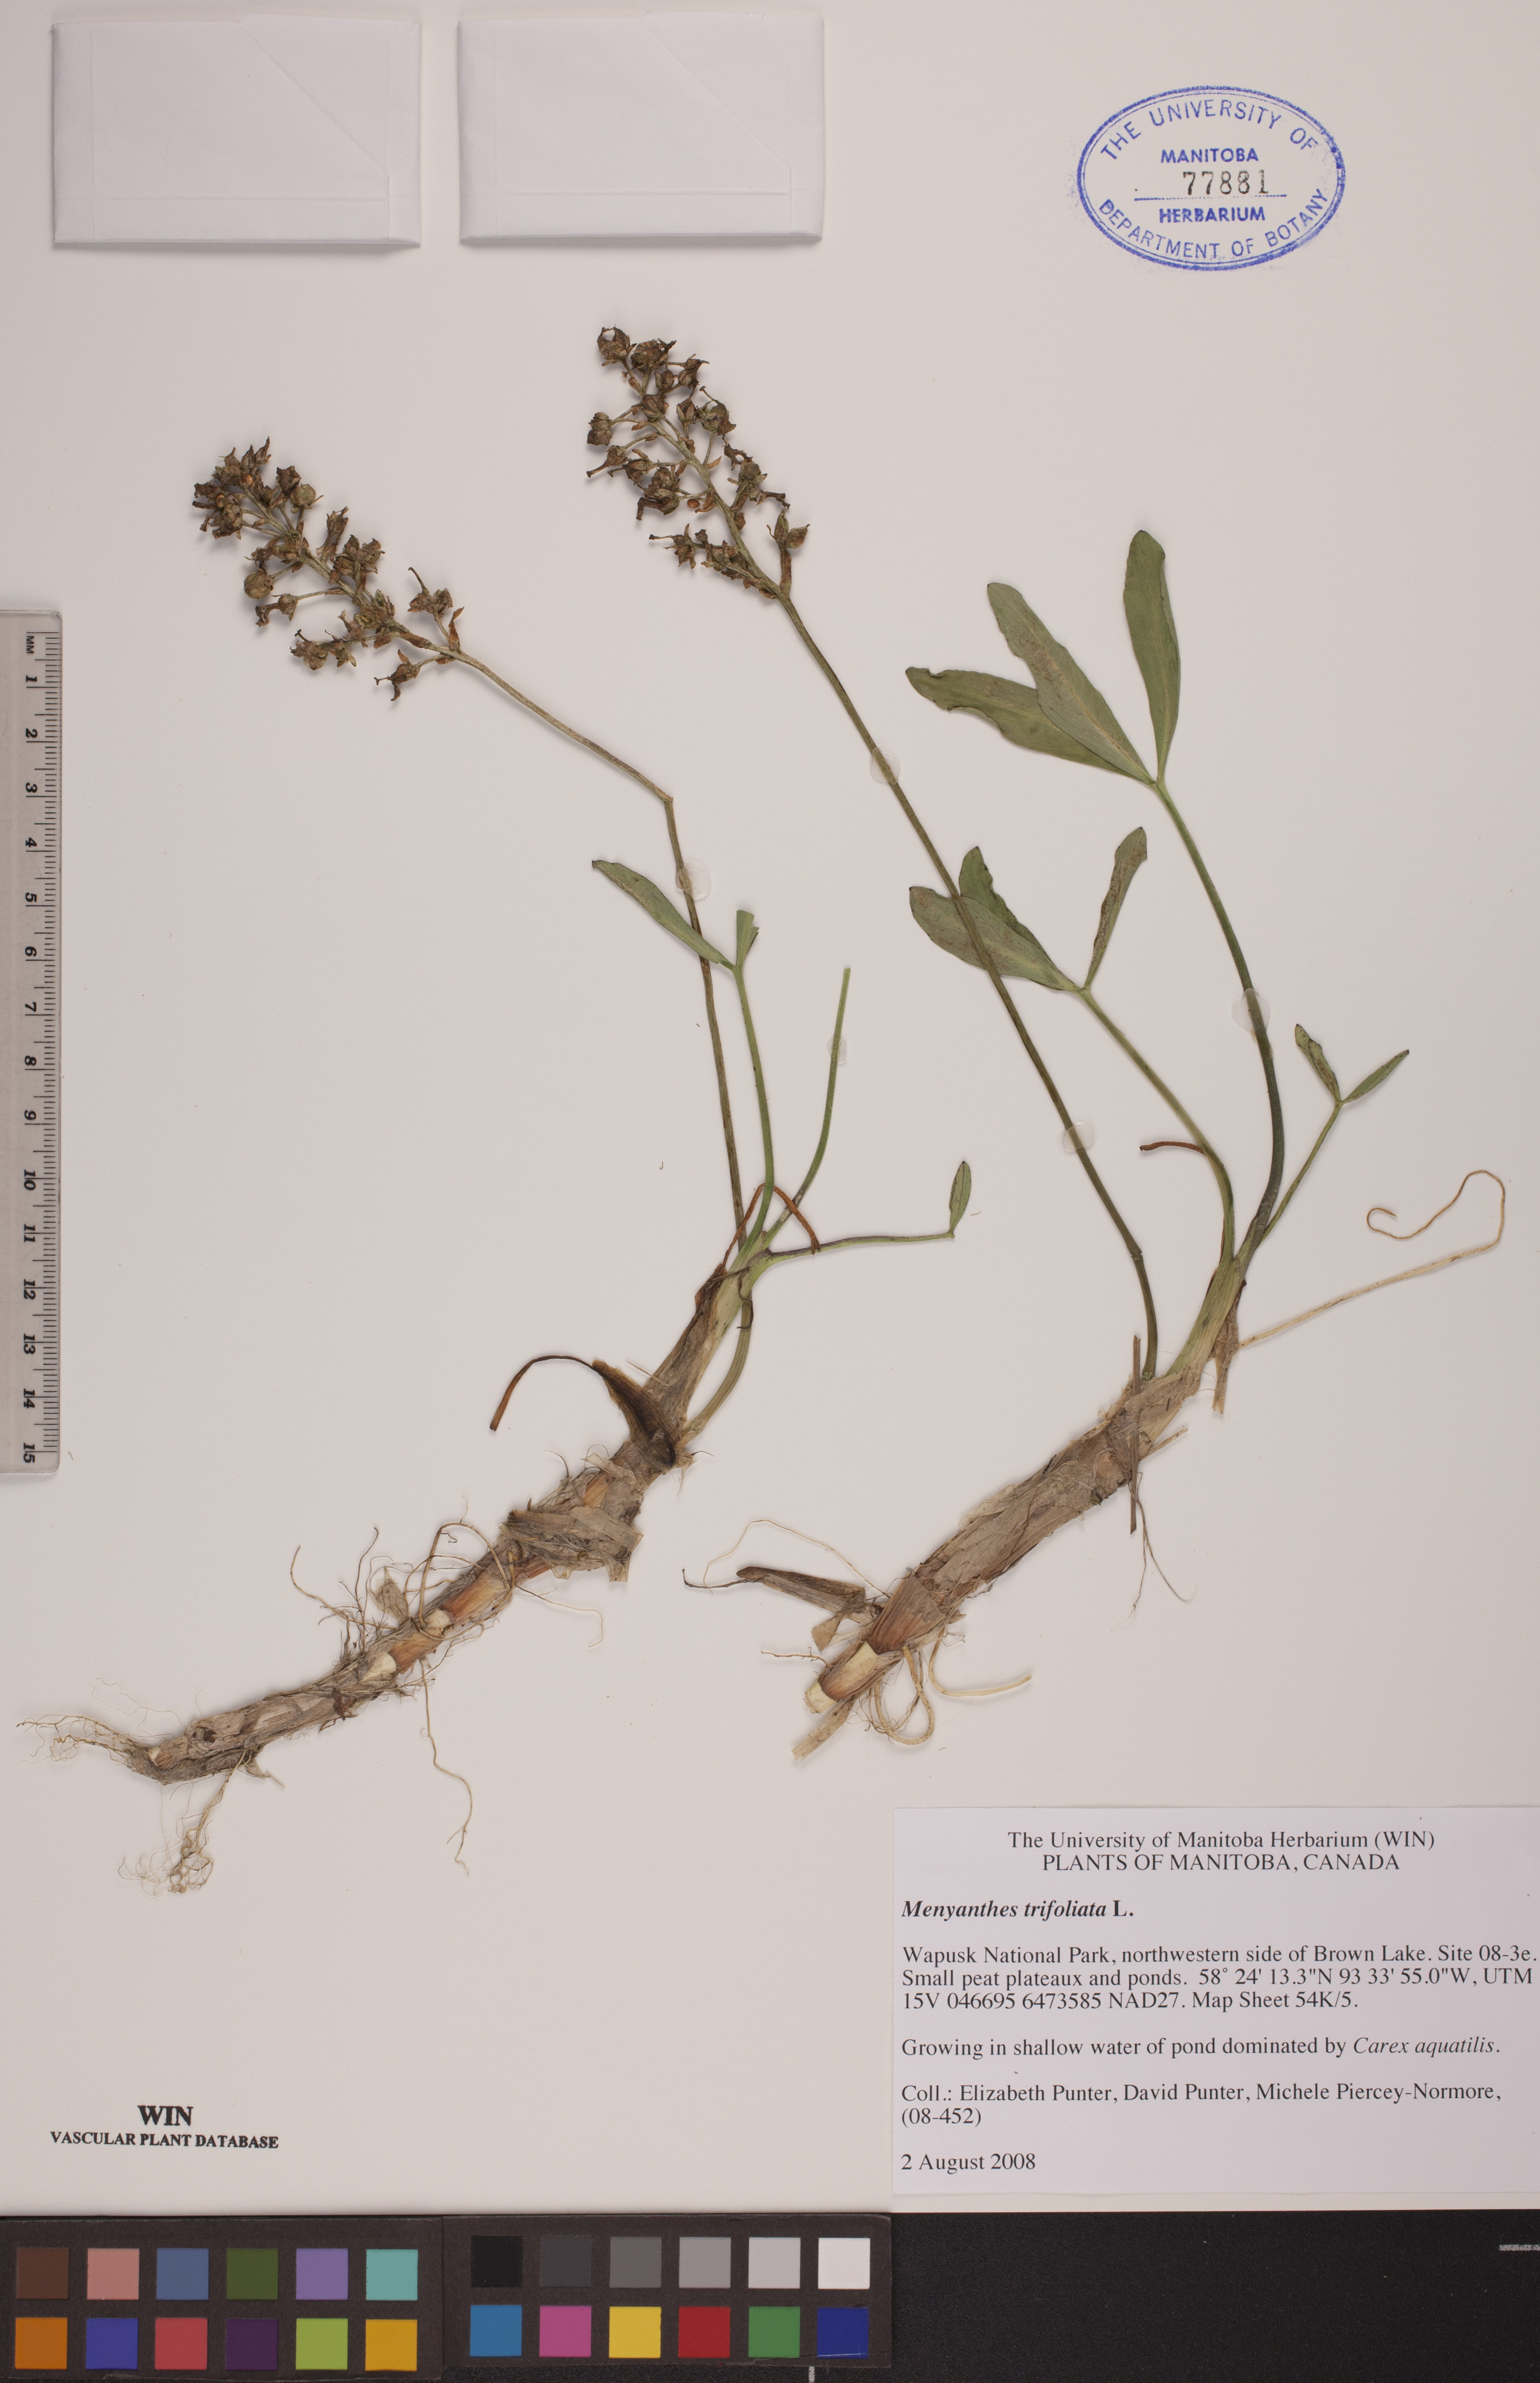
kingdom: Plantae
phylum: Tracheophyta
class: Magnoliopsida
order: Asterales
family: Menyanthaceae
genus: Menyanthes
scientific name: Menyanthes trifoliata
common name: Bogbean
